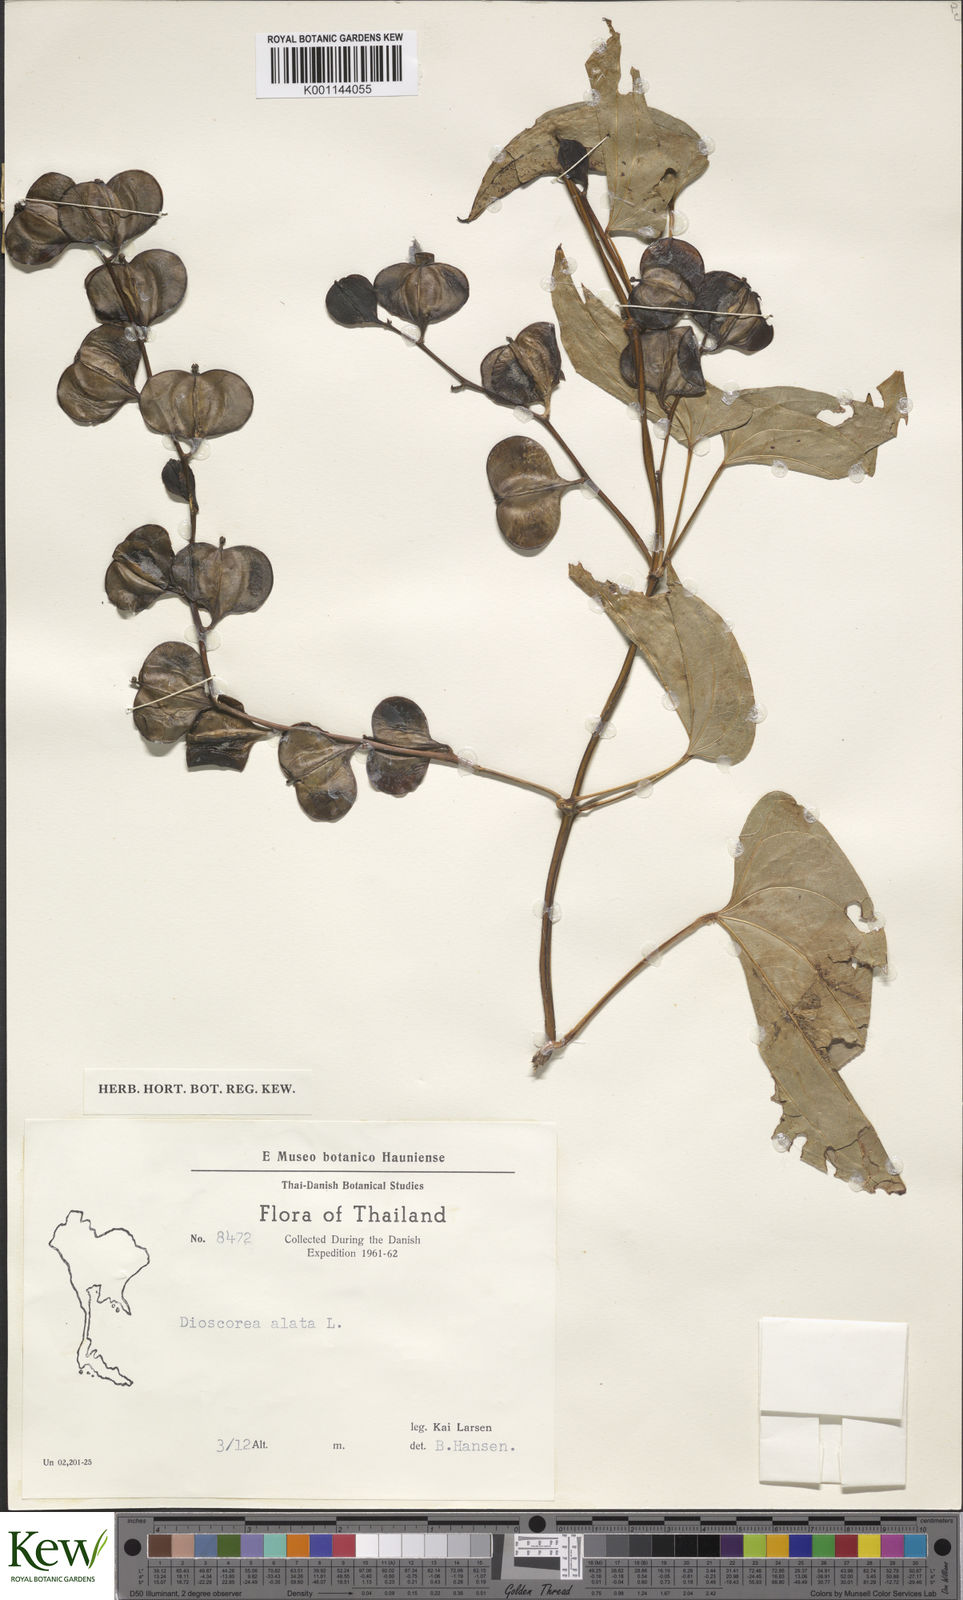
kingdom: Plantae
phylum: Tracheophyta
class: Liliopsida
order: Dioscoreales
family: Dioscoreaceae
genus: Dioscorea
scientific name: Dioscorea alata
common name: Water yam
